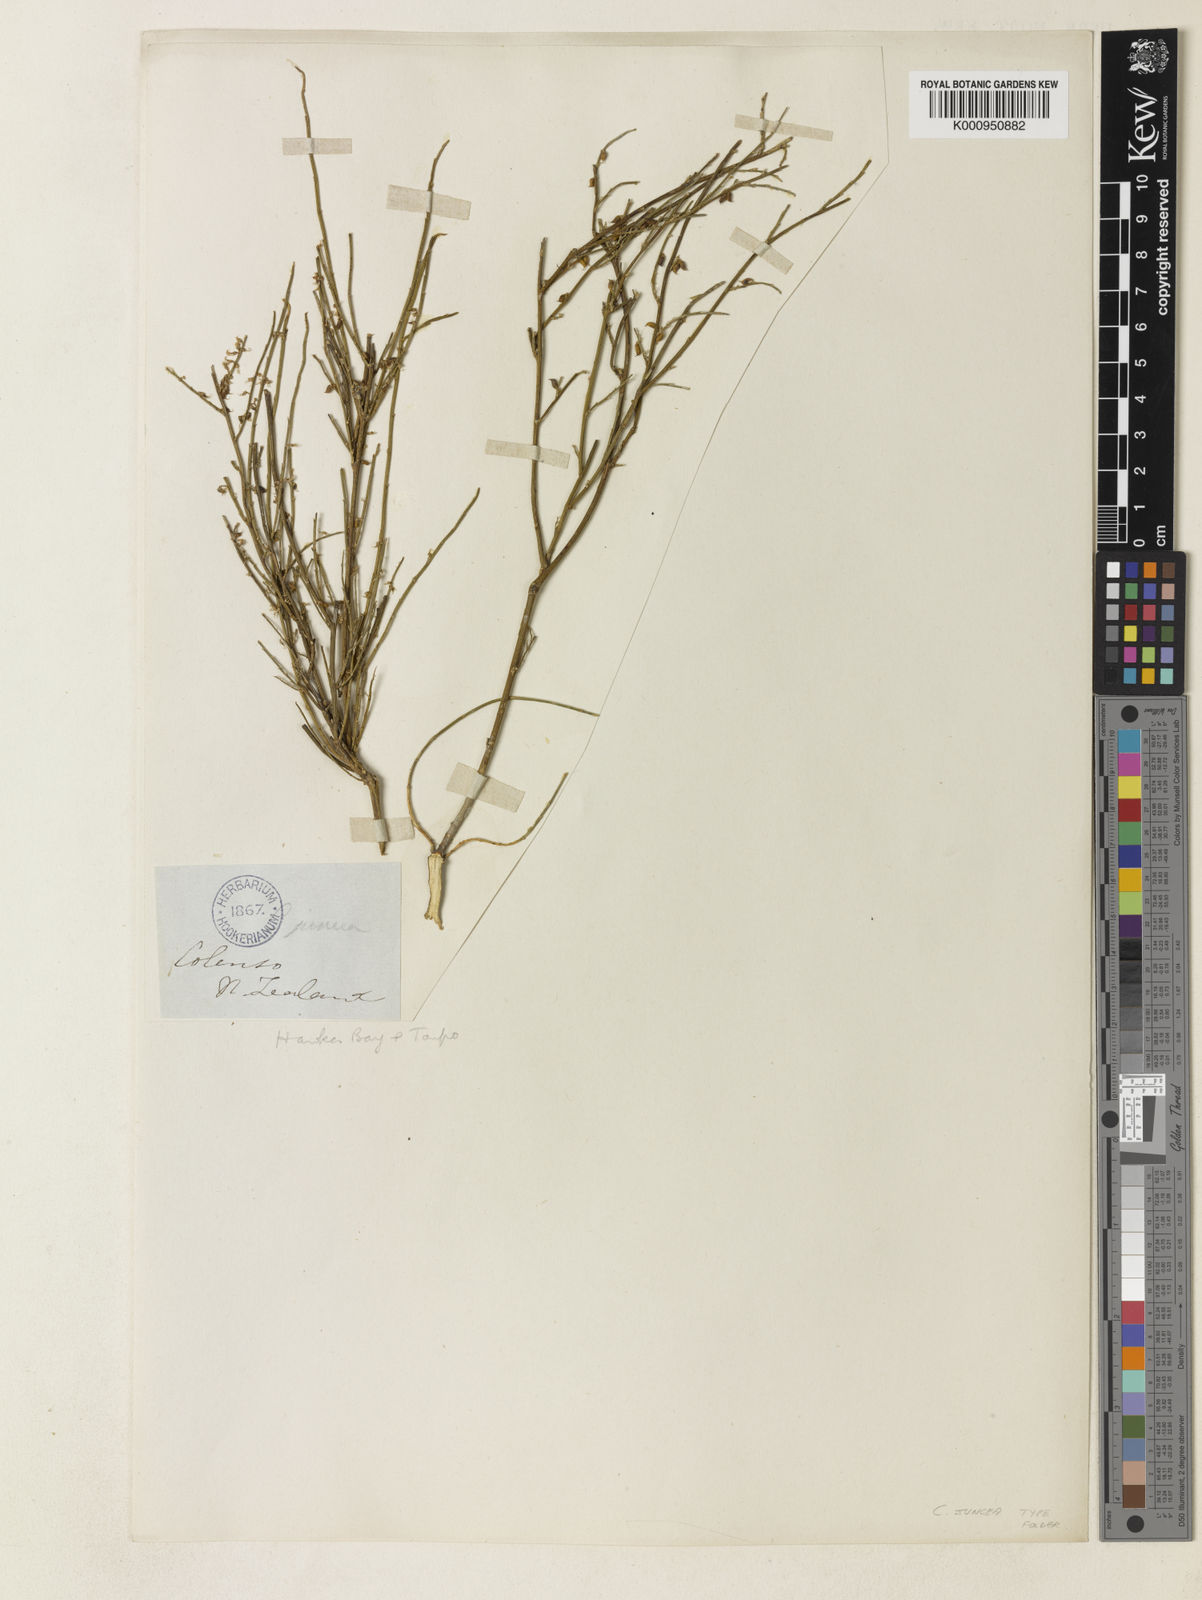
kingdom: Plantae
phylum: Tracheophyta
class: Magnoliopsida
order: Fabales
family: Fabaceae
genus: Carmichaelia
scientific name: Carmichaelia juncea
